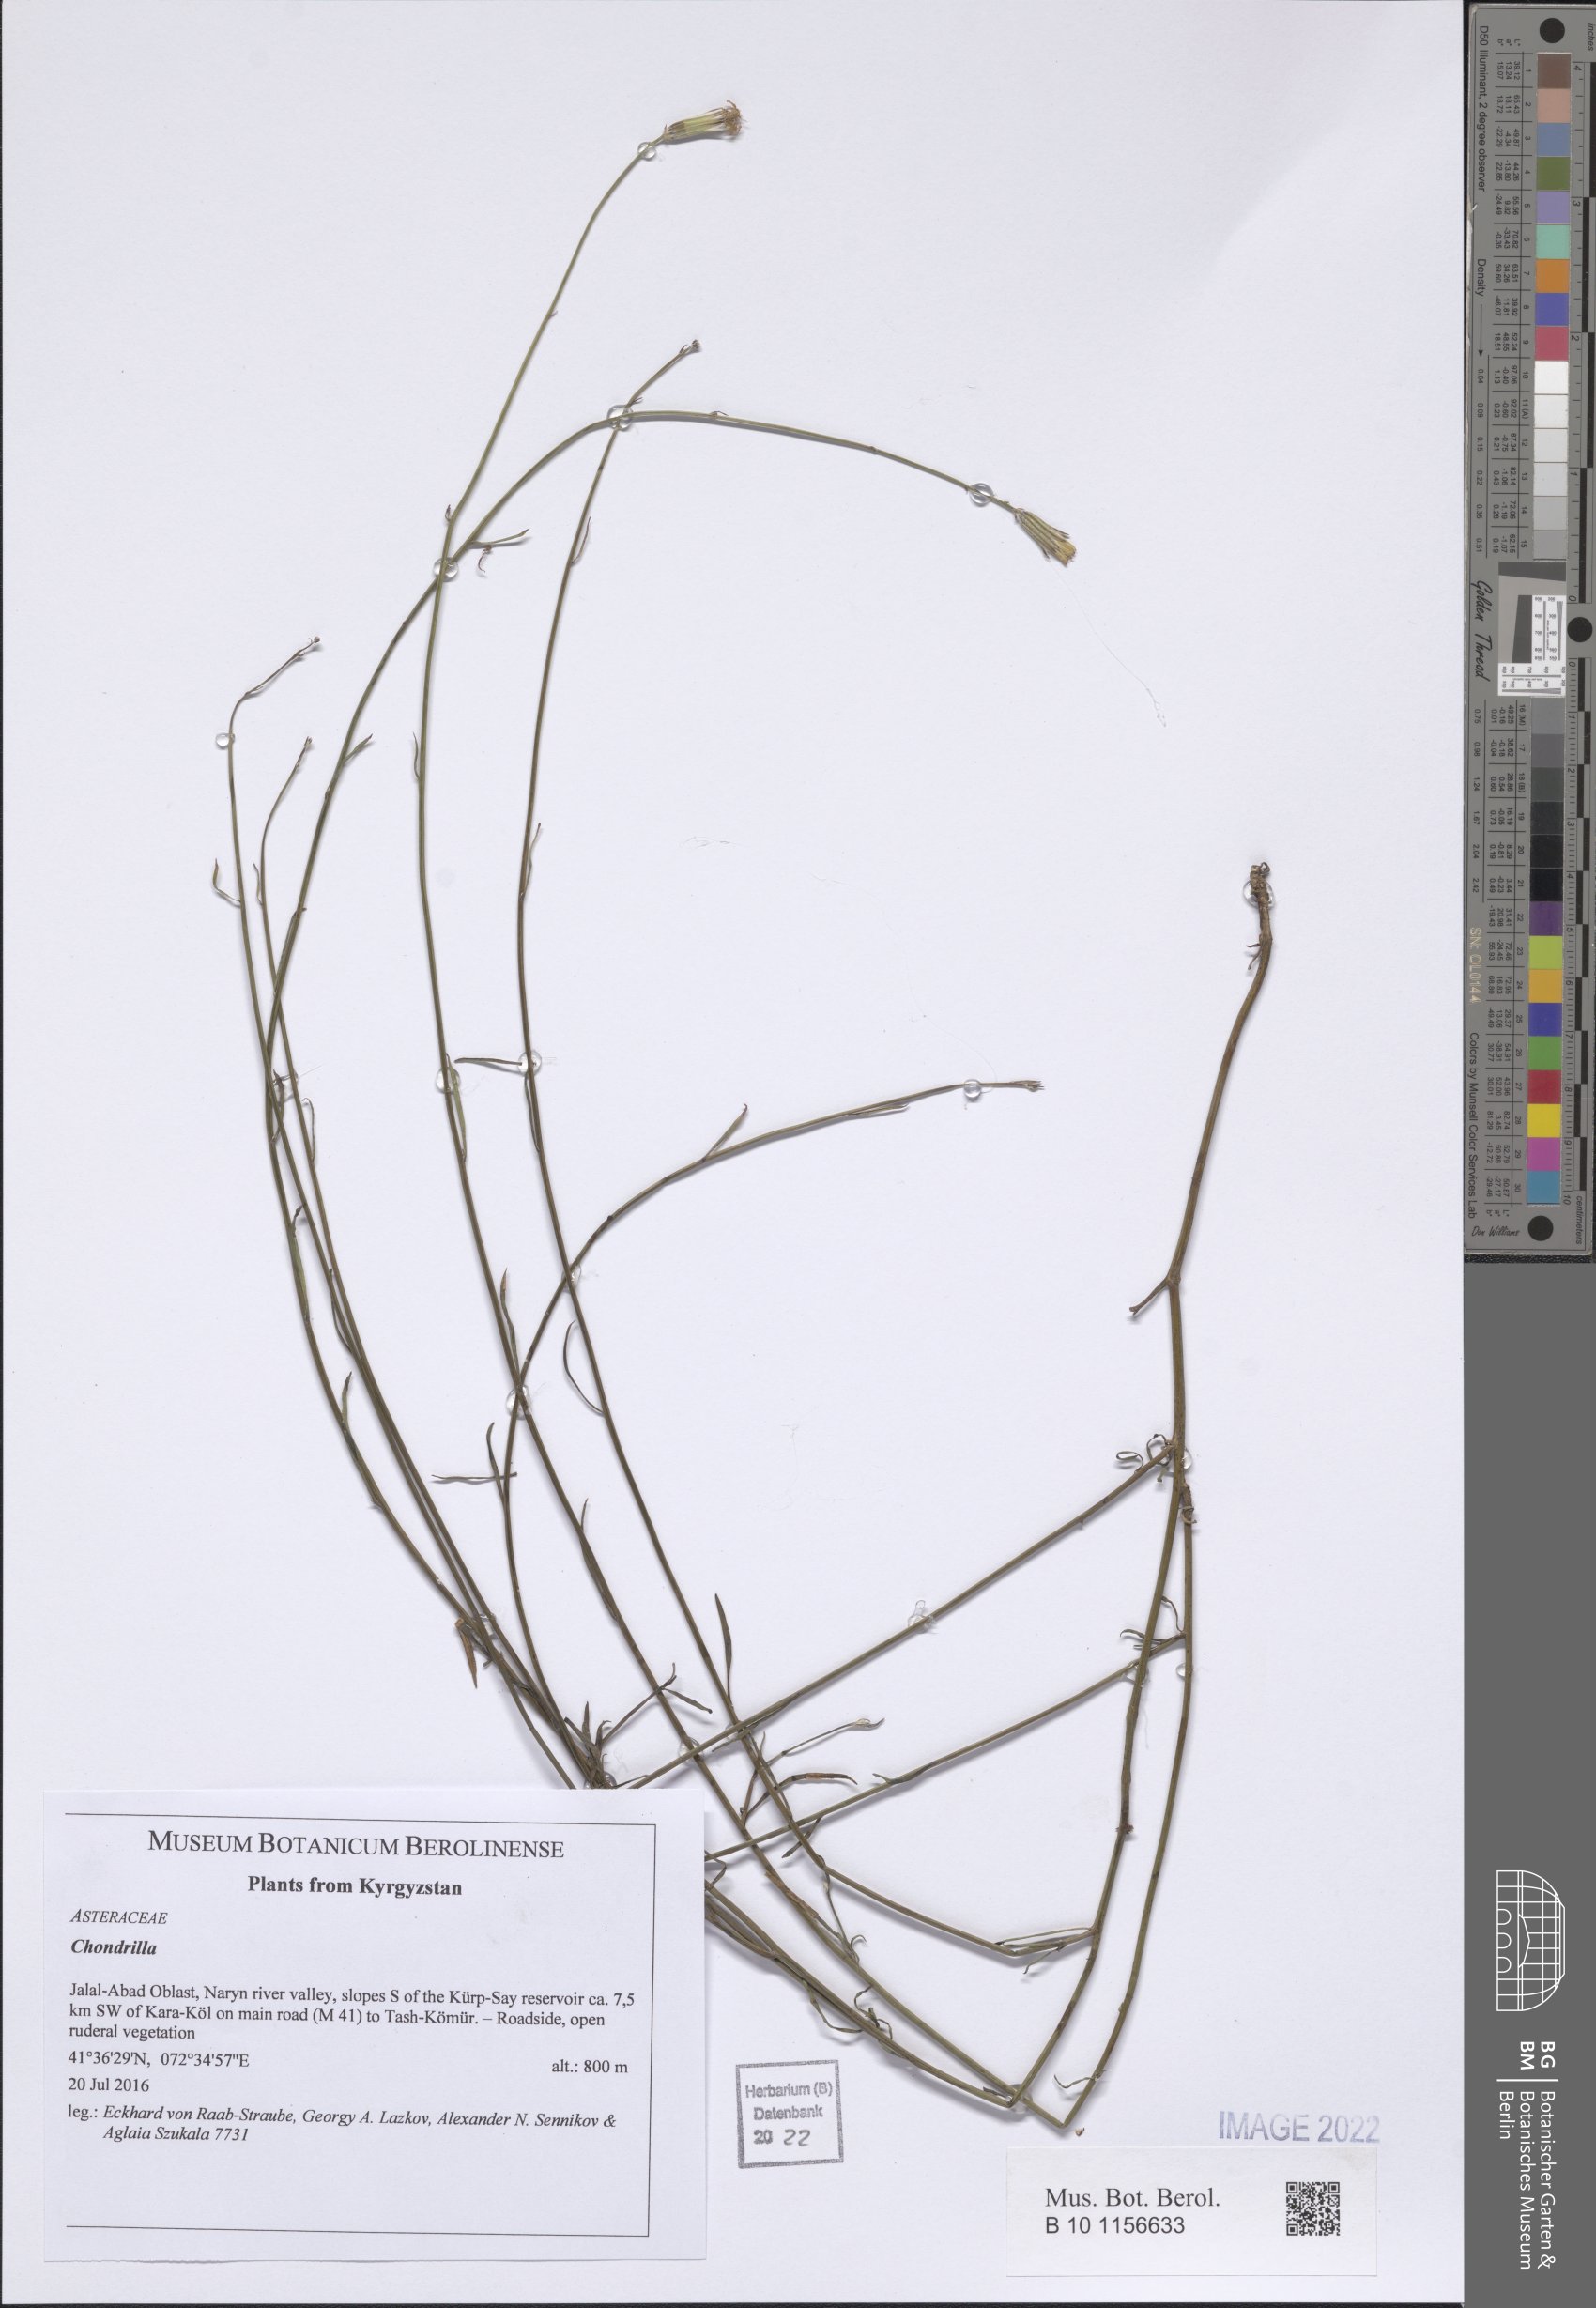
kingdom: Plantae
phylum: Tracheophyta
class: Magnoliopsida
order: Asterales
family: Asteraceae
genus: Chondrilla
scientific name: Chondrilla
